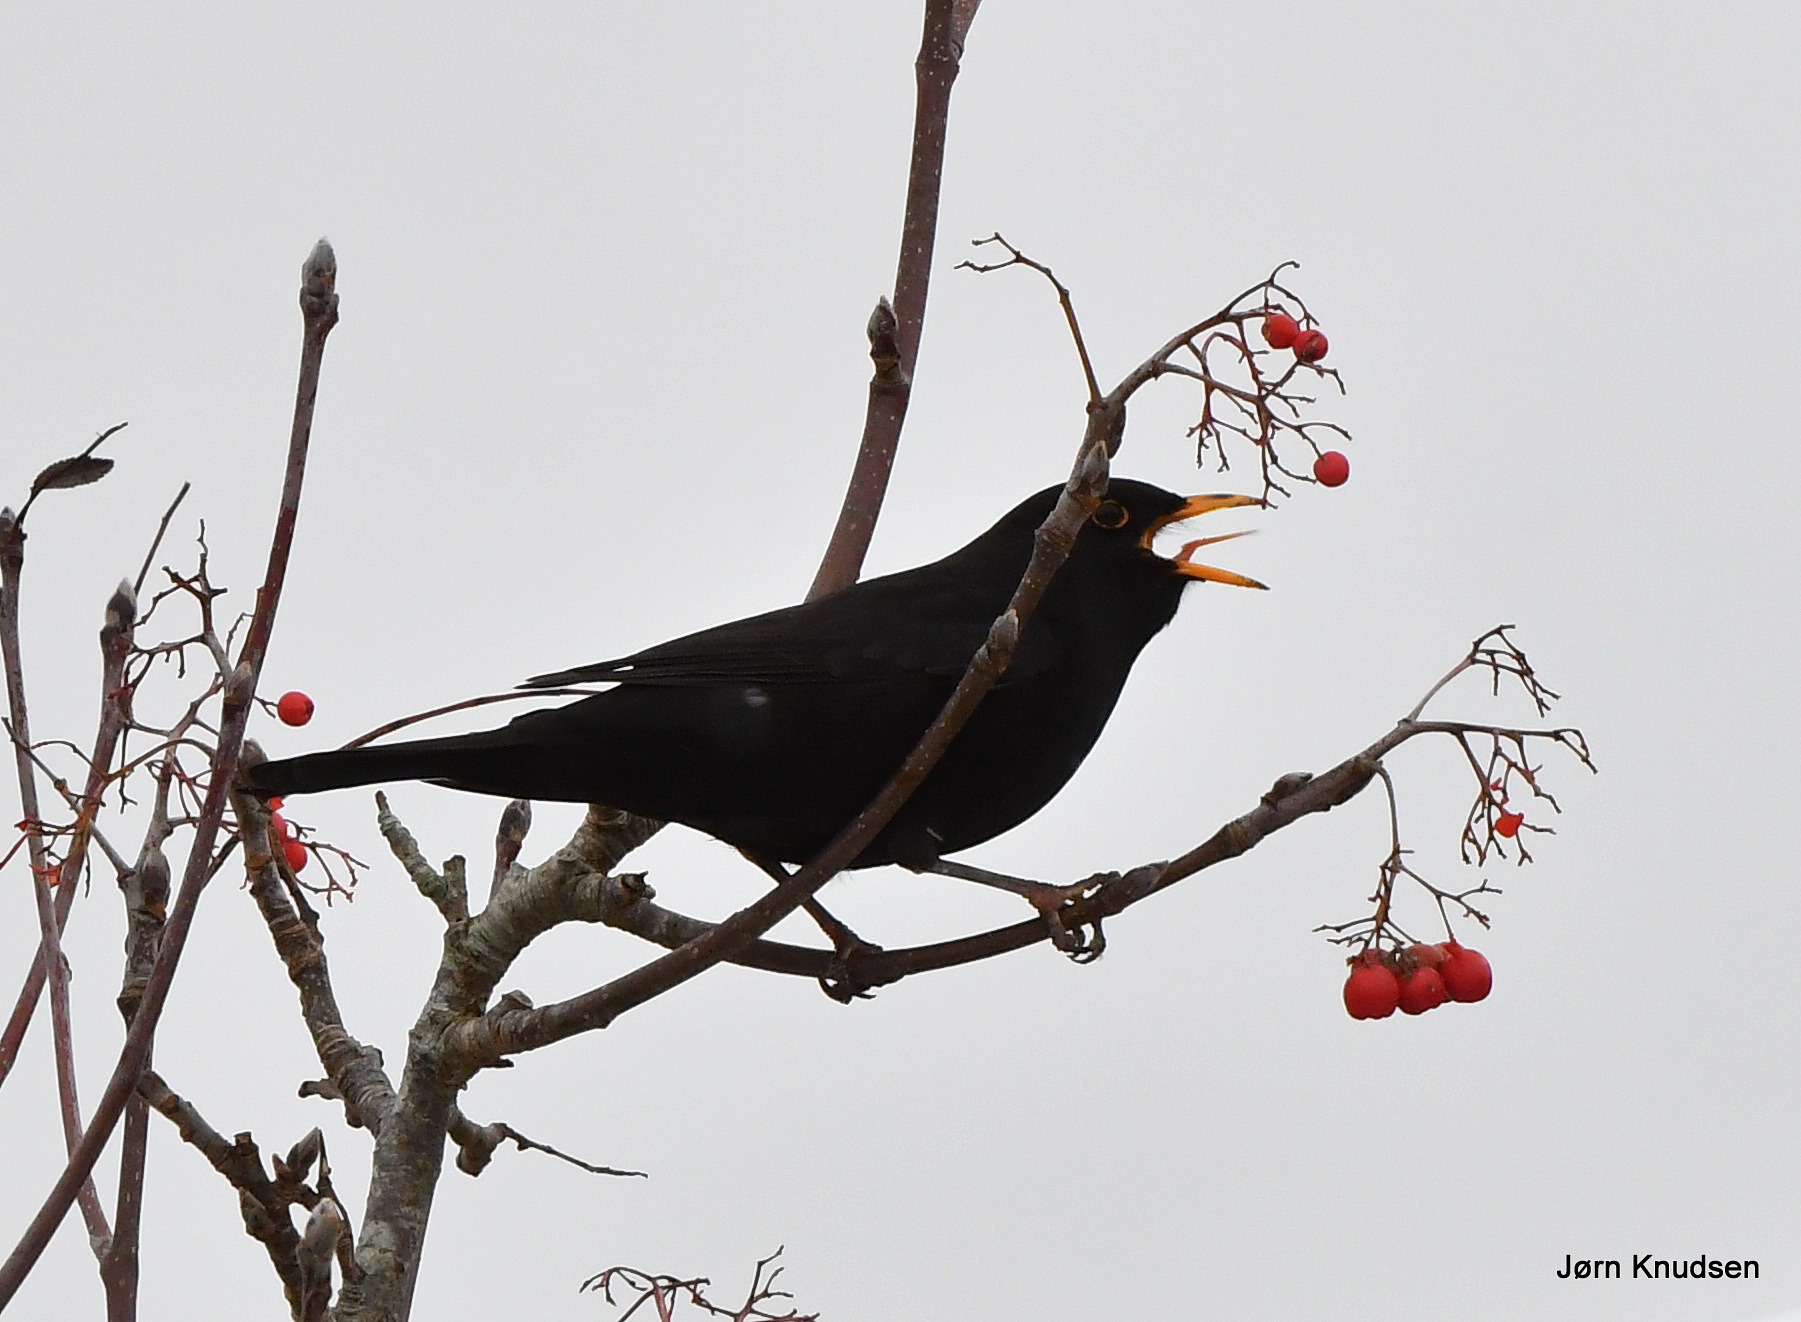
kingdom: Animalia
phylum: Chordata
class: Aves
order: Passeriformes
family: Turdidae
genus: Turdus
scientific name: Turdus merula
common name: Solsort
